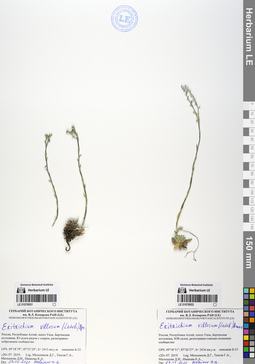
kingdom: Plantae
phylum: Tracheophyta
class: Magnoliopsida
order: Boraginales
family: Boraginaceae
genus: Eritrichium
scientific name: Eritrichium villosum
